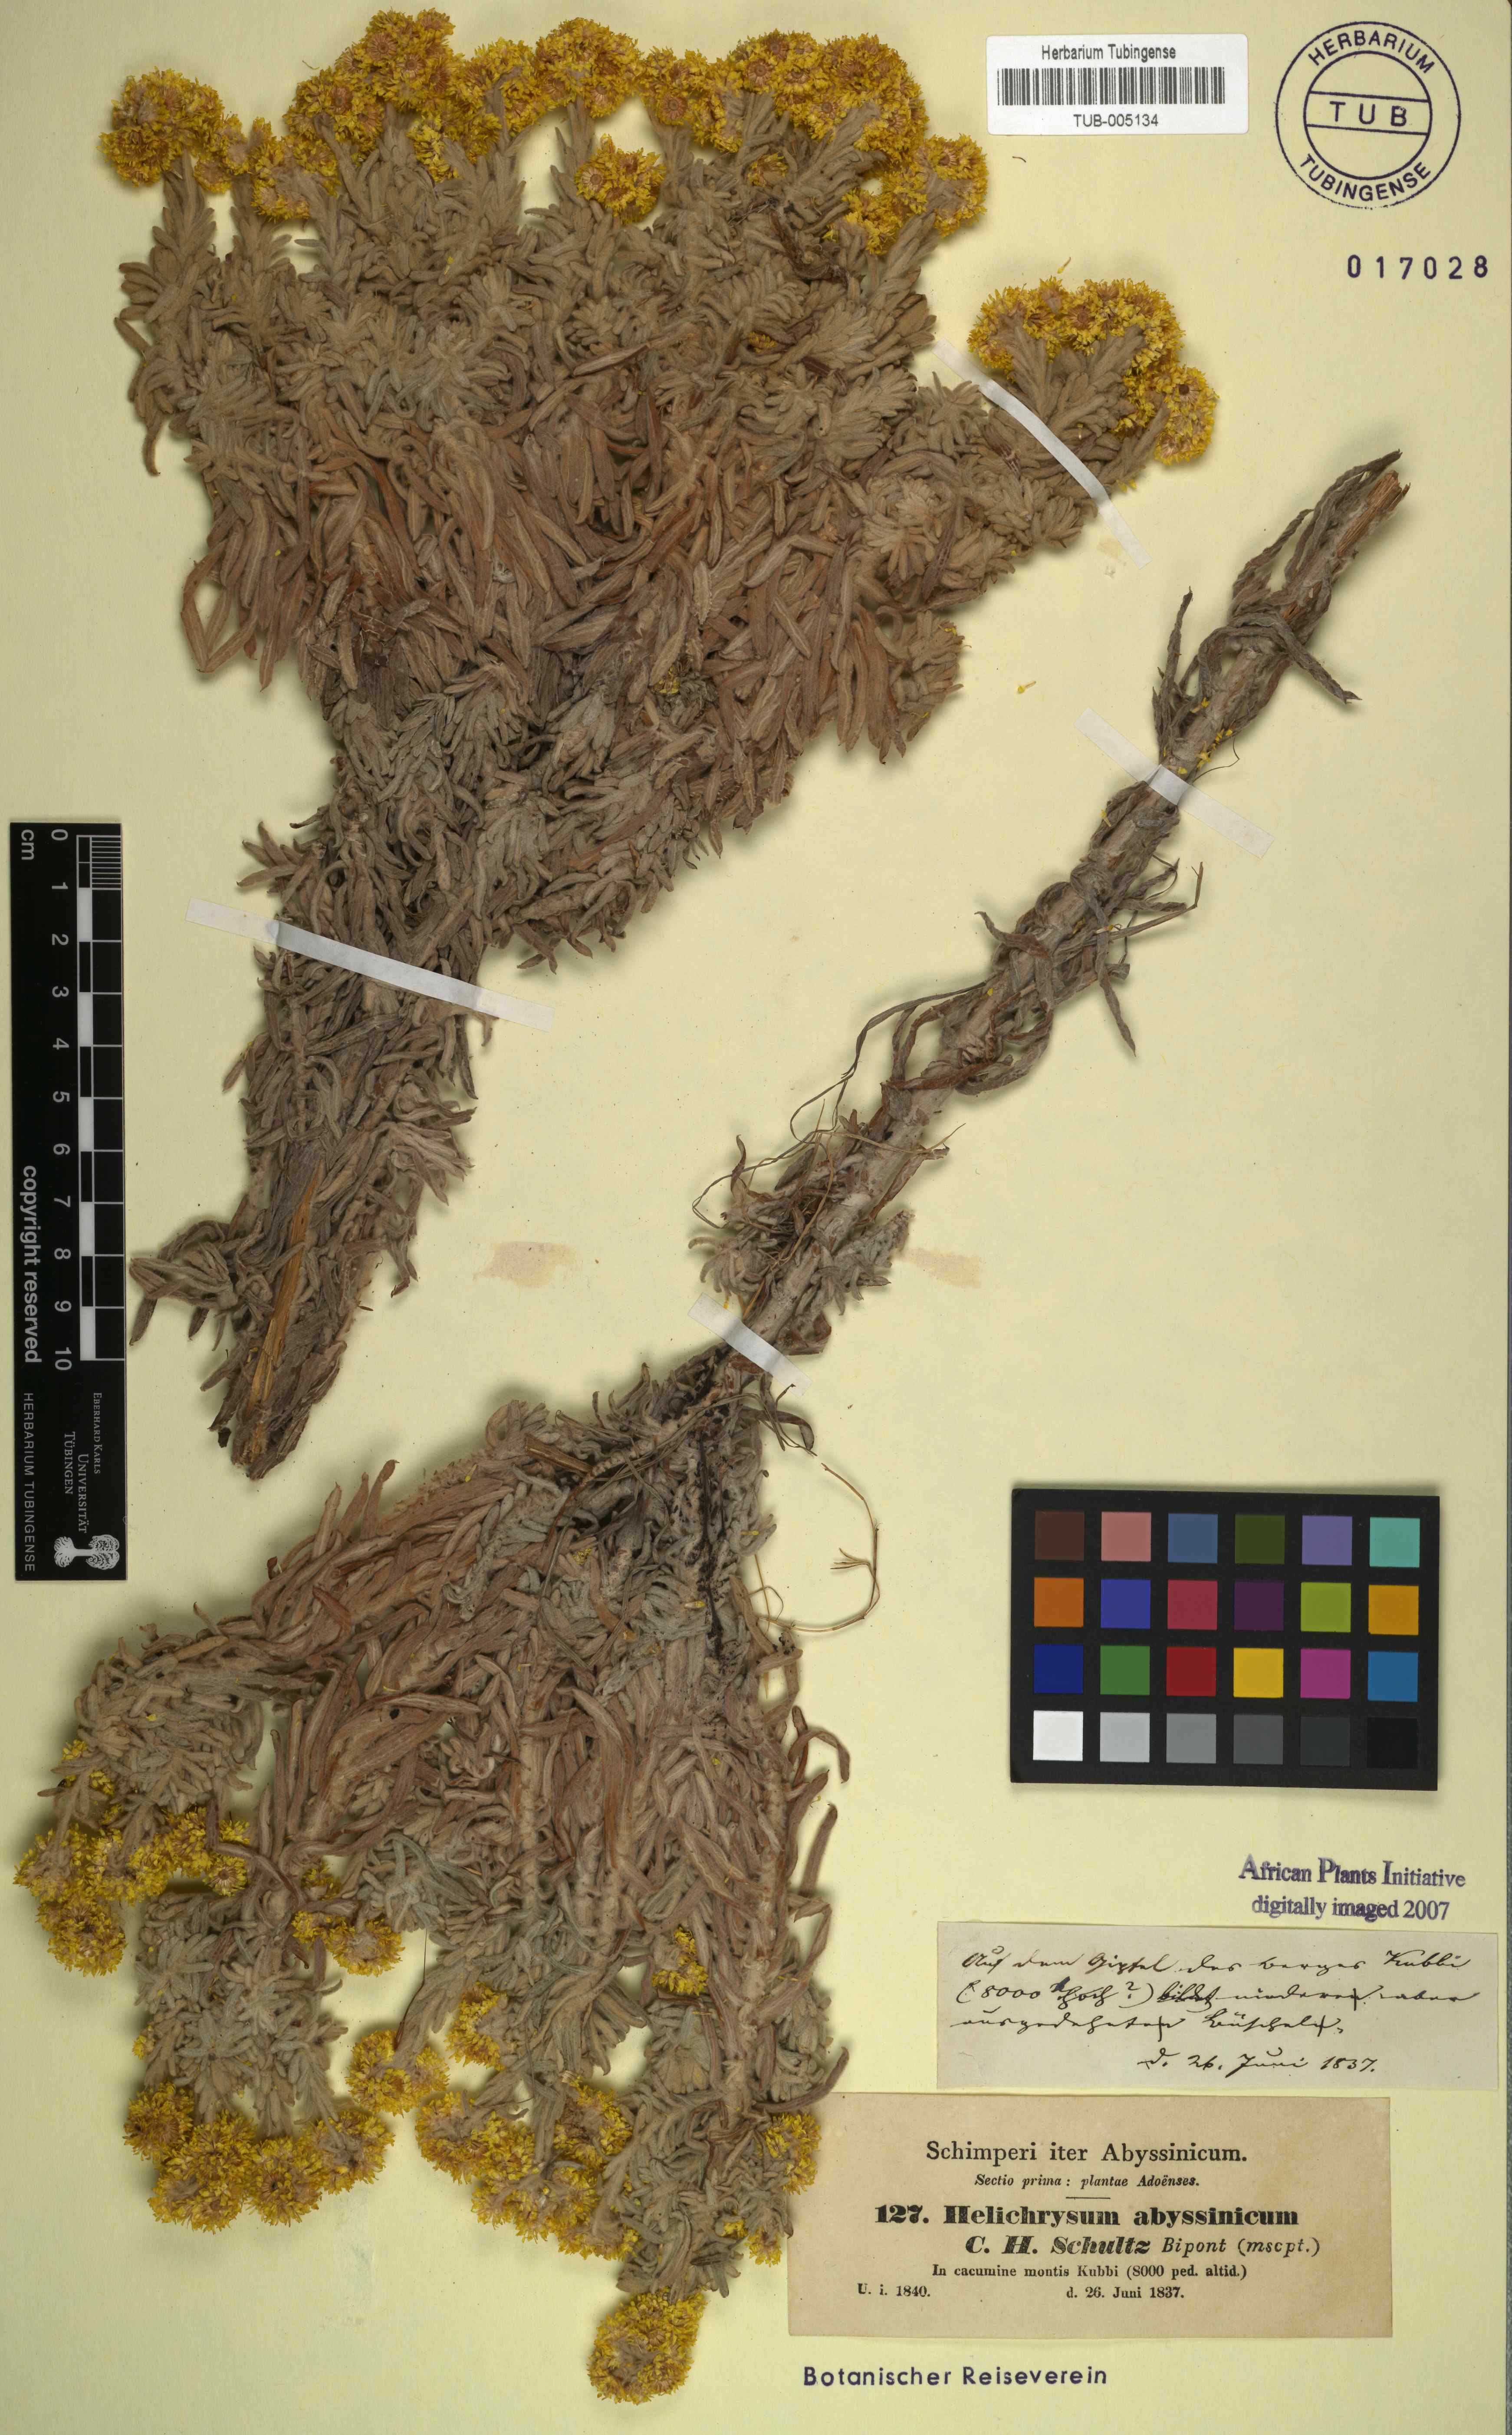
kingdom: Plantae
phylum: Tracheophyta
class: Magnoliopsida
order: Asterales
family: Asteraceae
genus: Helichrysum
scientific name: Helichrysum splendidum
